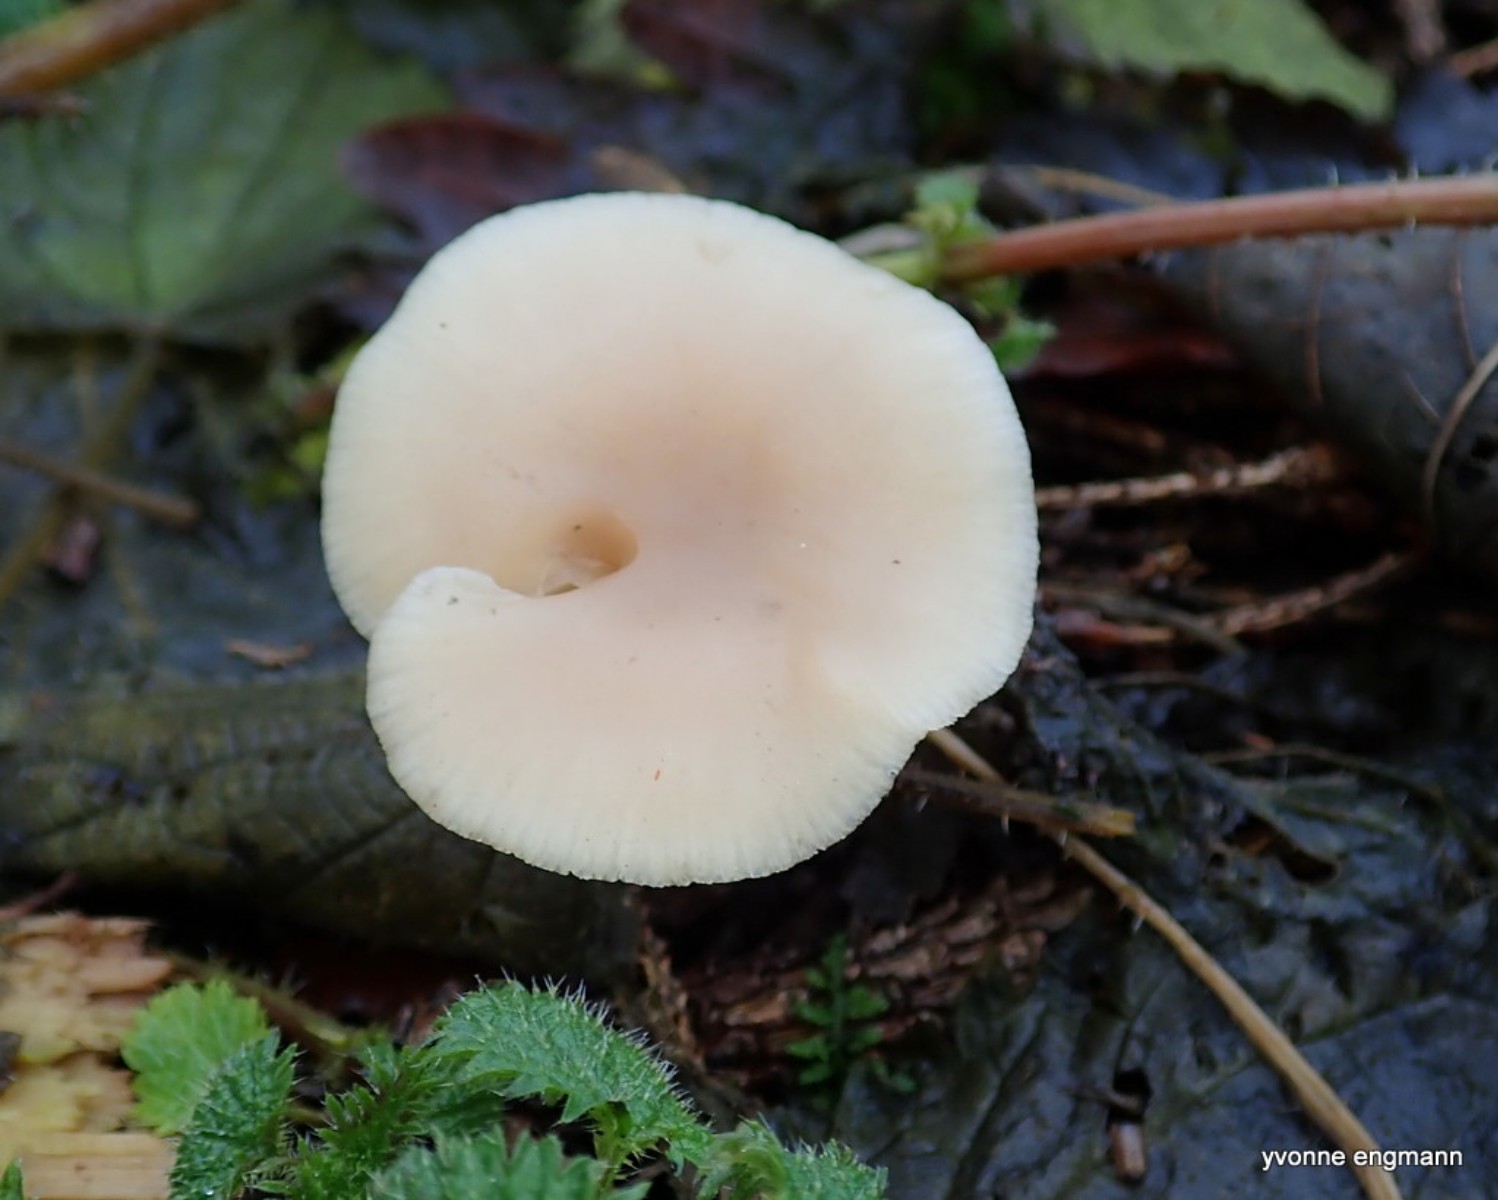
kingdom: Fungi
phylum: Basidiomycota
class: Agaricomycetes
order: Agaricales
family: Tricholomataceae
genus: Clitocybe
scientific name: Clitocybe fragrans
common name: vellugtende tragthat
